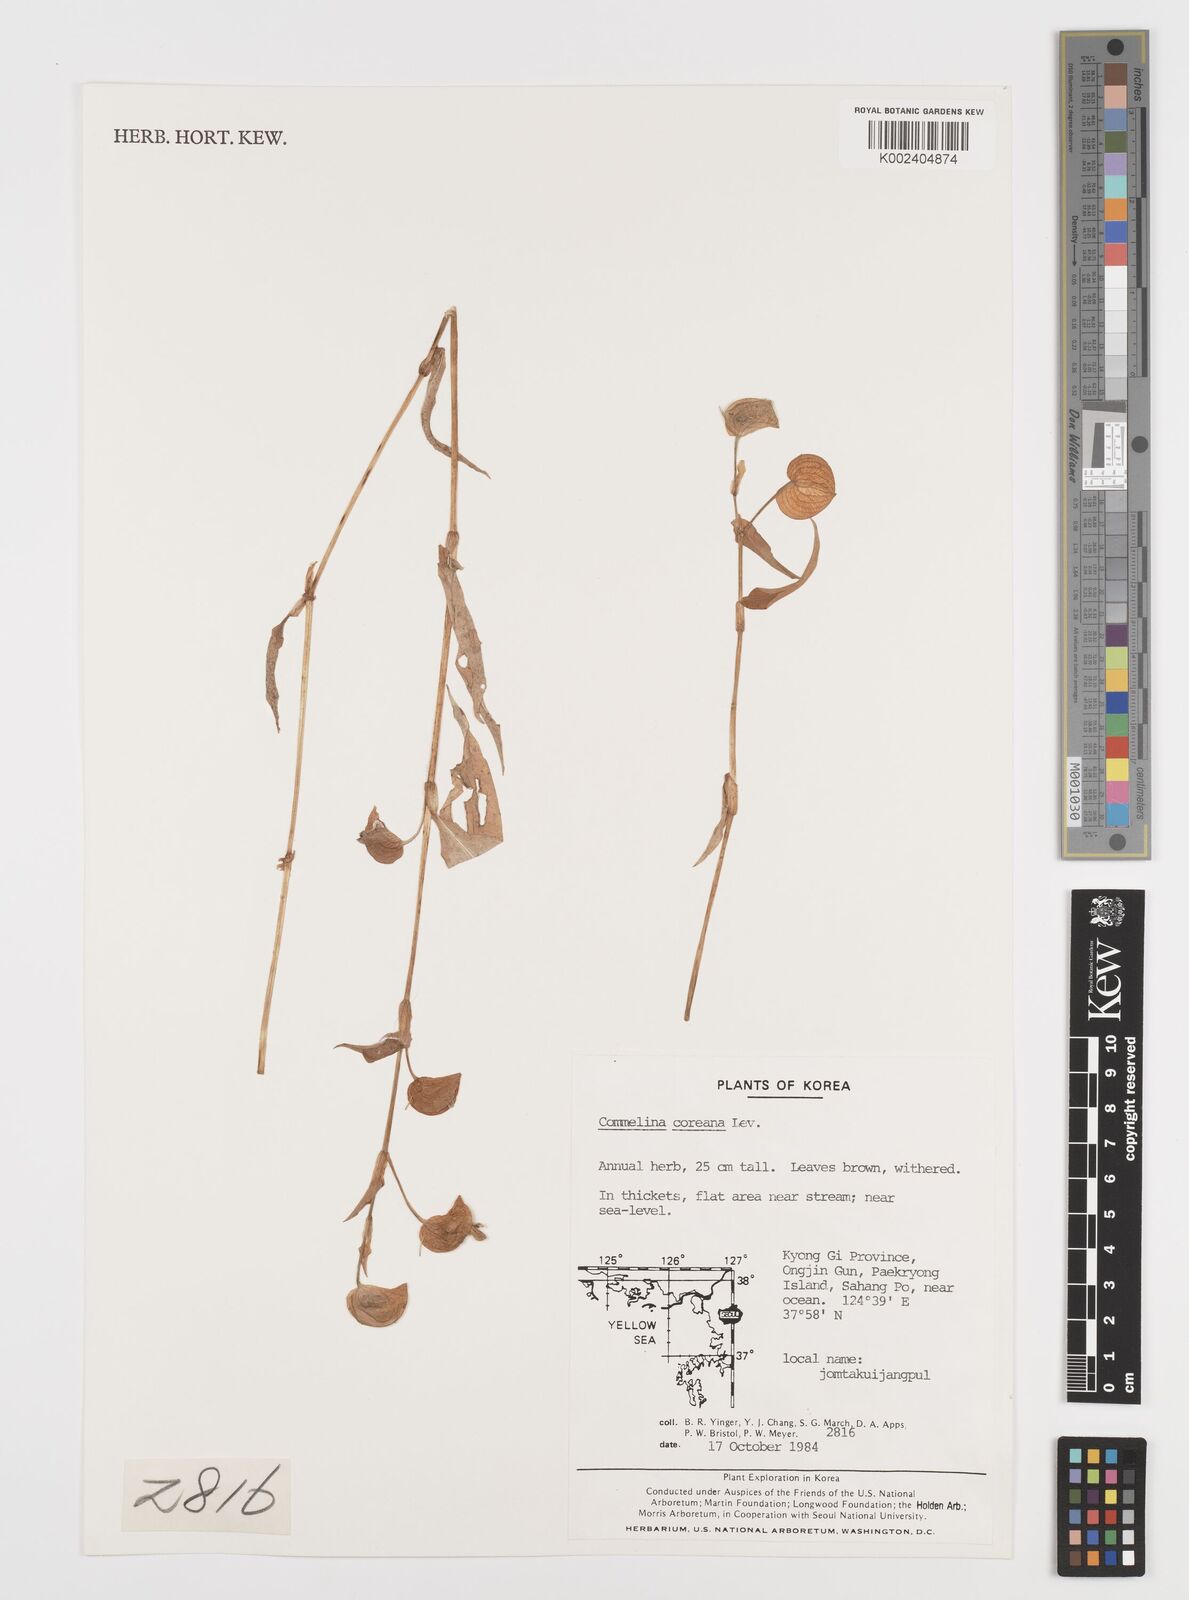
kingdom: Plantae
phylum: Tracheophyta
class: Liliopsida
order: Commelinales
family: Commelinaceae
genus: Commelina
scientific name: Commelina communis
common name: Asiatic dayflower
